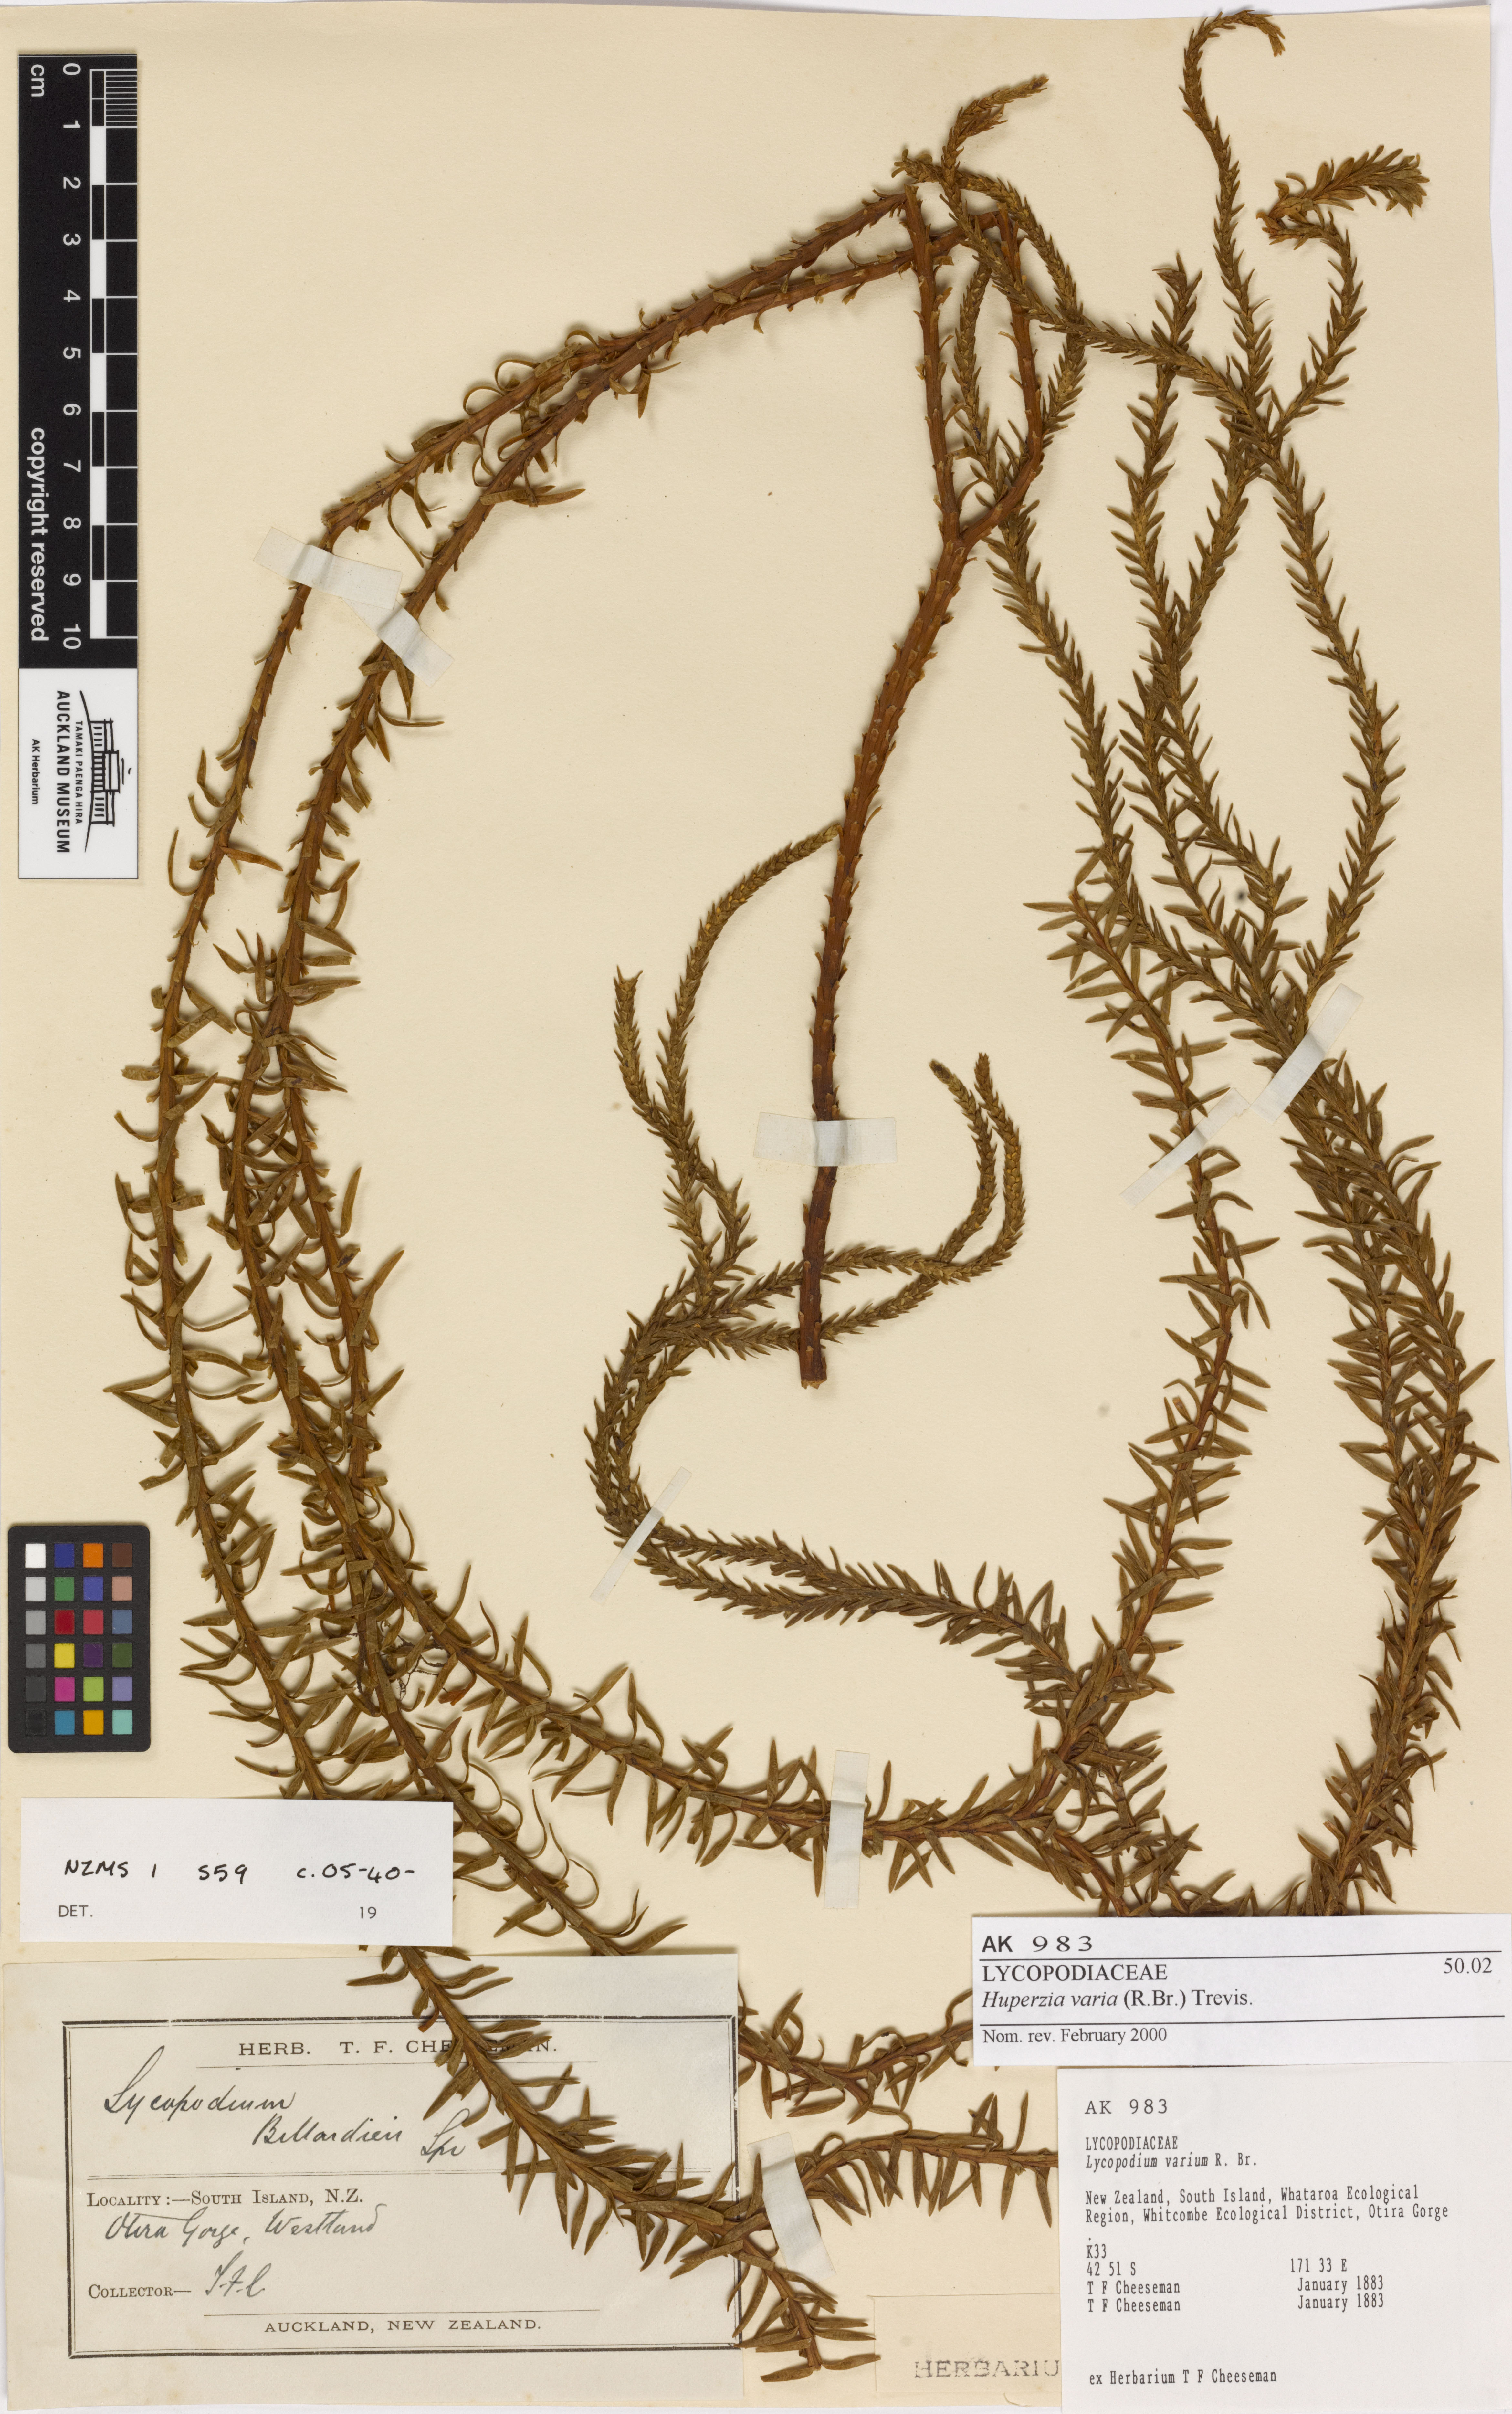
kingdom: Plantae
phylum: Tracheophyta
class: Lycopodiopsida
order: Lycopodiales
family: Lycopodiaceae
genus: Phlegmariurus
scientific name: Phlegmariurus varius
